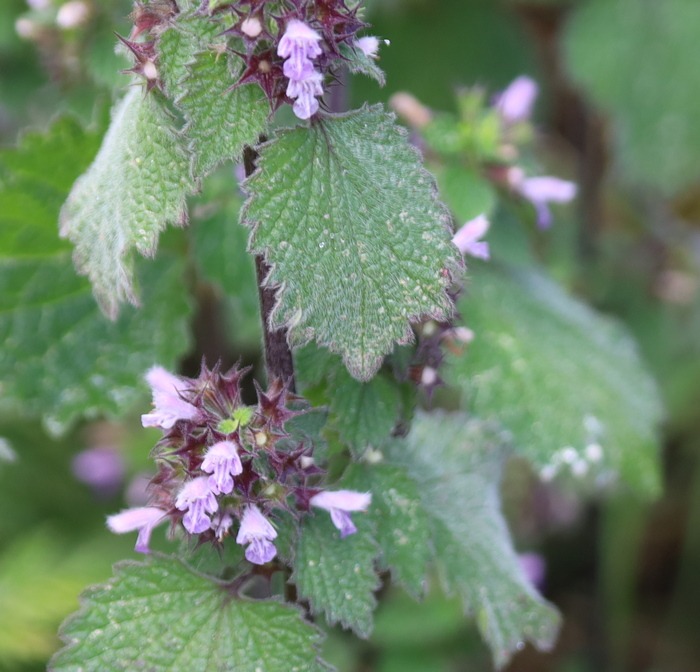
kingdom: Plantae
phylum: Tracheophyta
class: Magnoliopsida
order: Lamiales
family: Lamiaceae
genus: Ballota
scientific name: Ballota nigra
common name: Tandbæger
